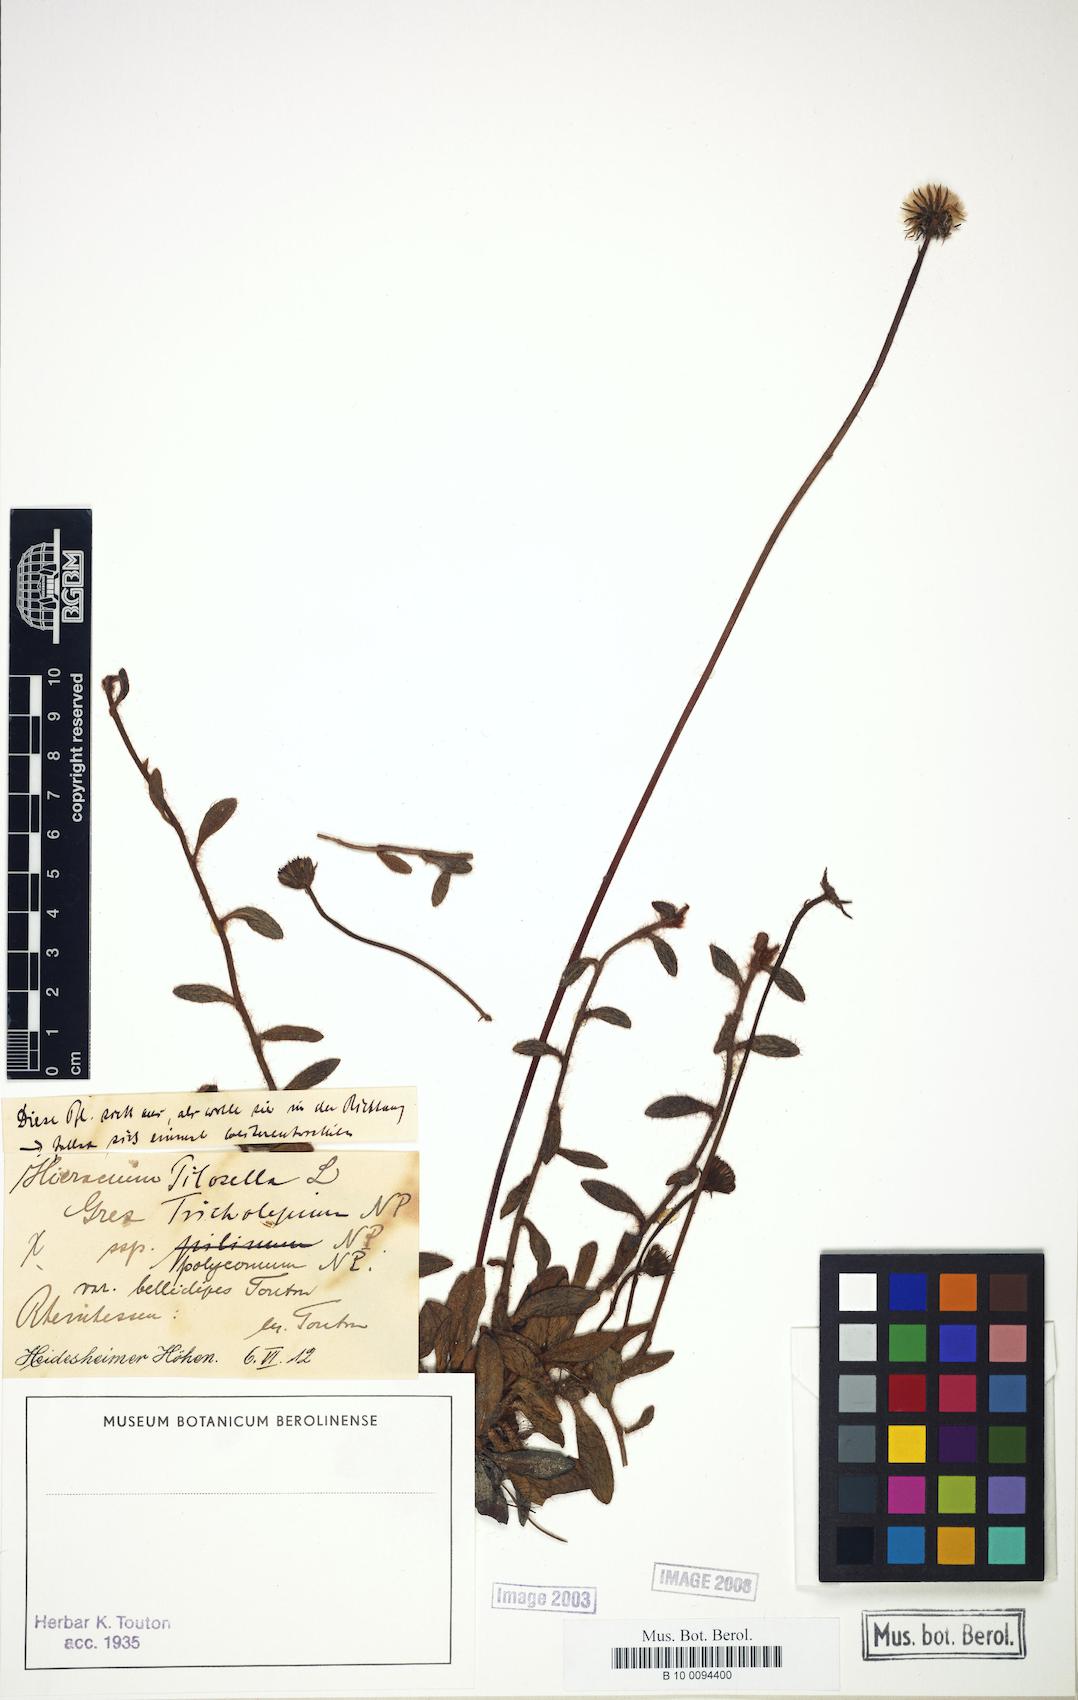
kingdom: Plantae
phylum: Tracheophyta
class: Magnoliopsida
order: Asterales
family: Asteraceae
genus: Pilosella
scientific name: Pilosella officinarum
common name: Mouse-ear hawkweed
